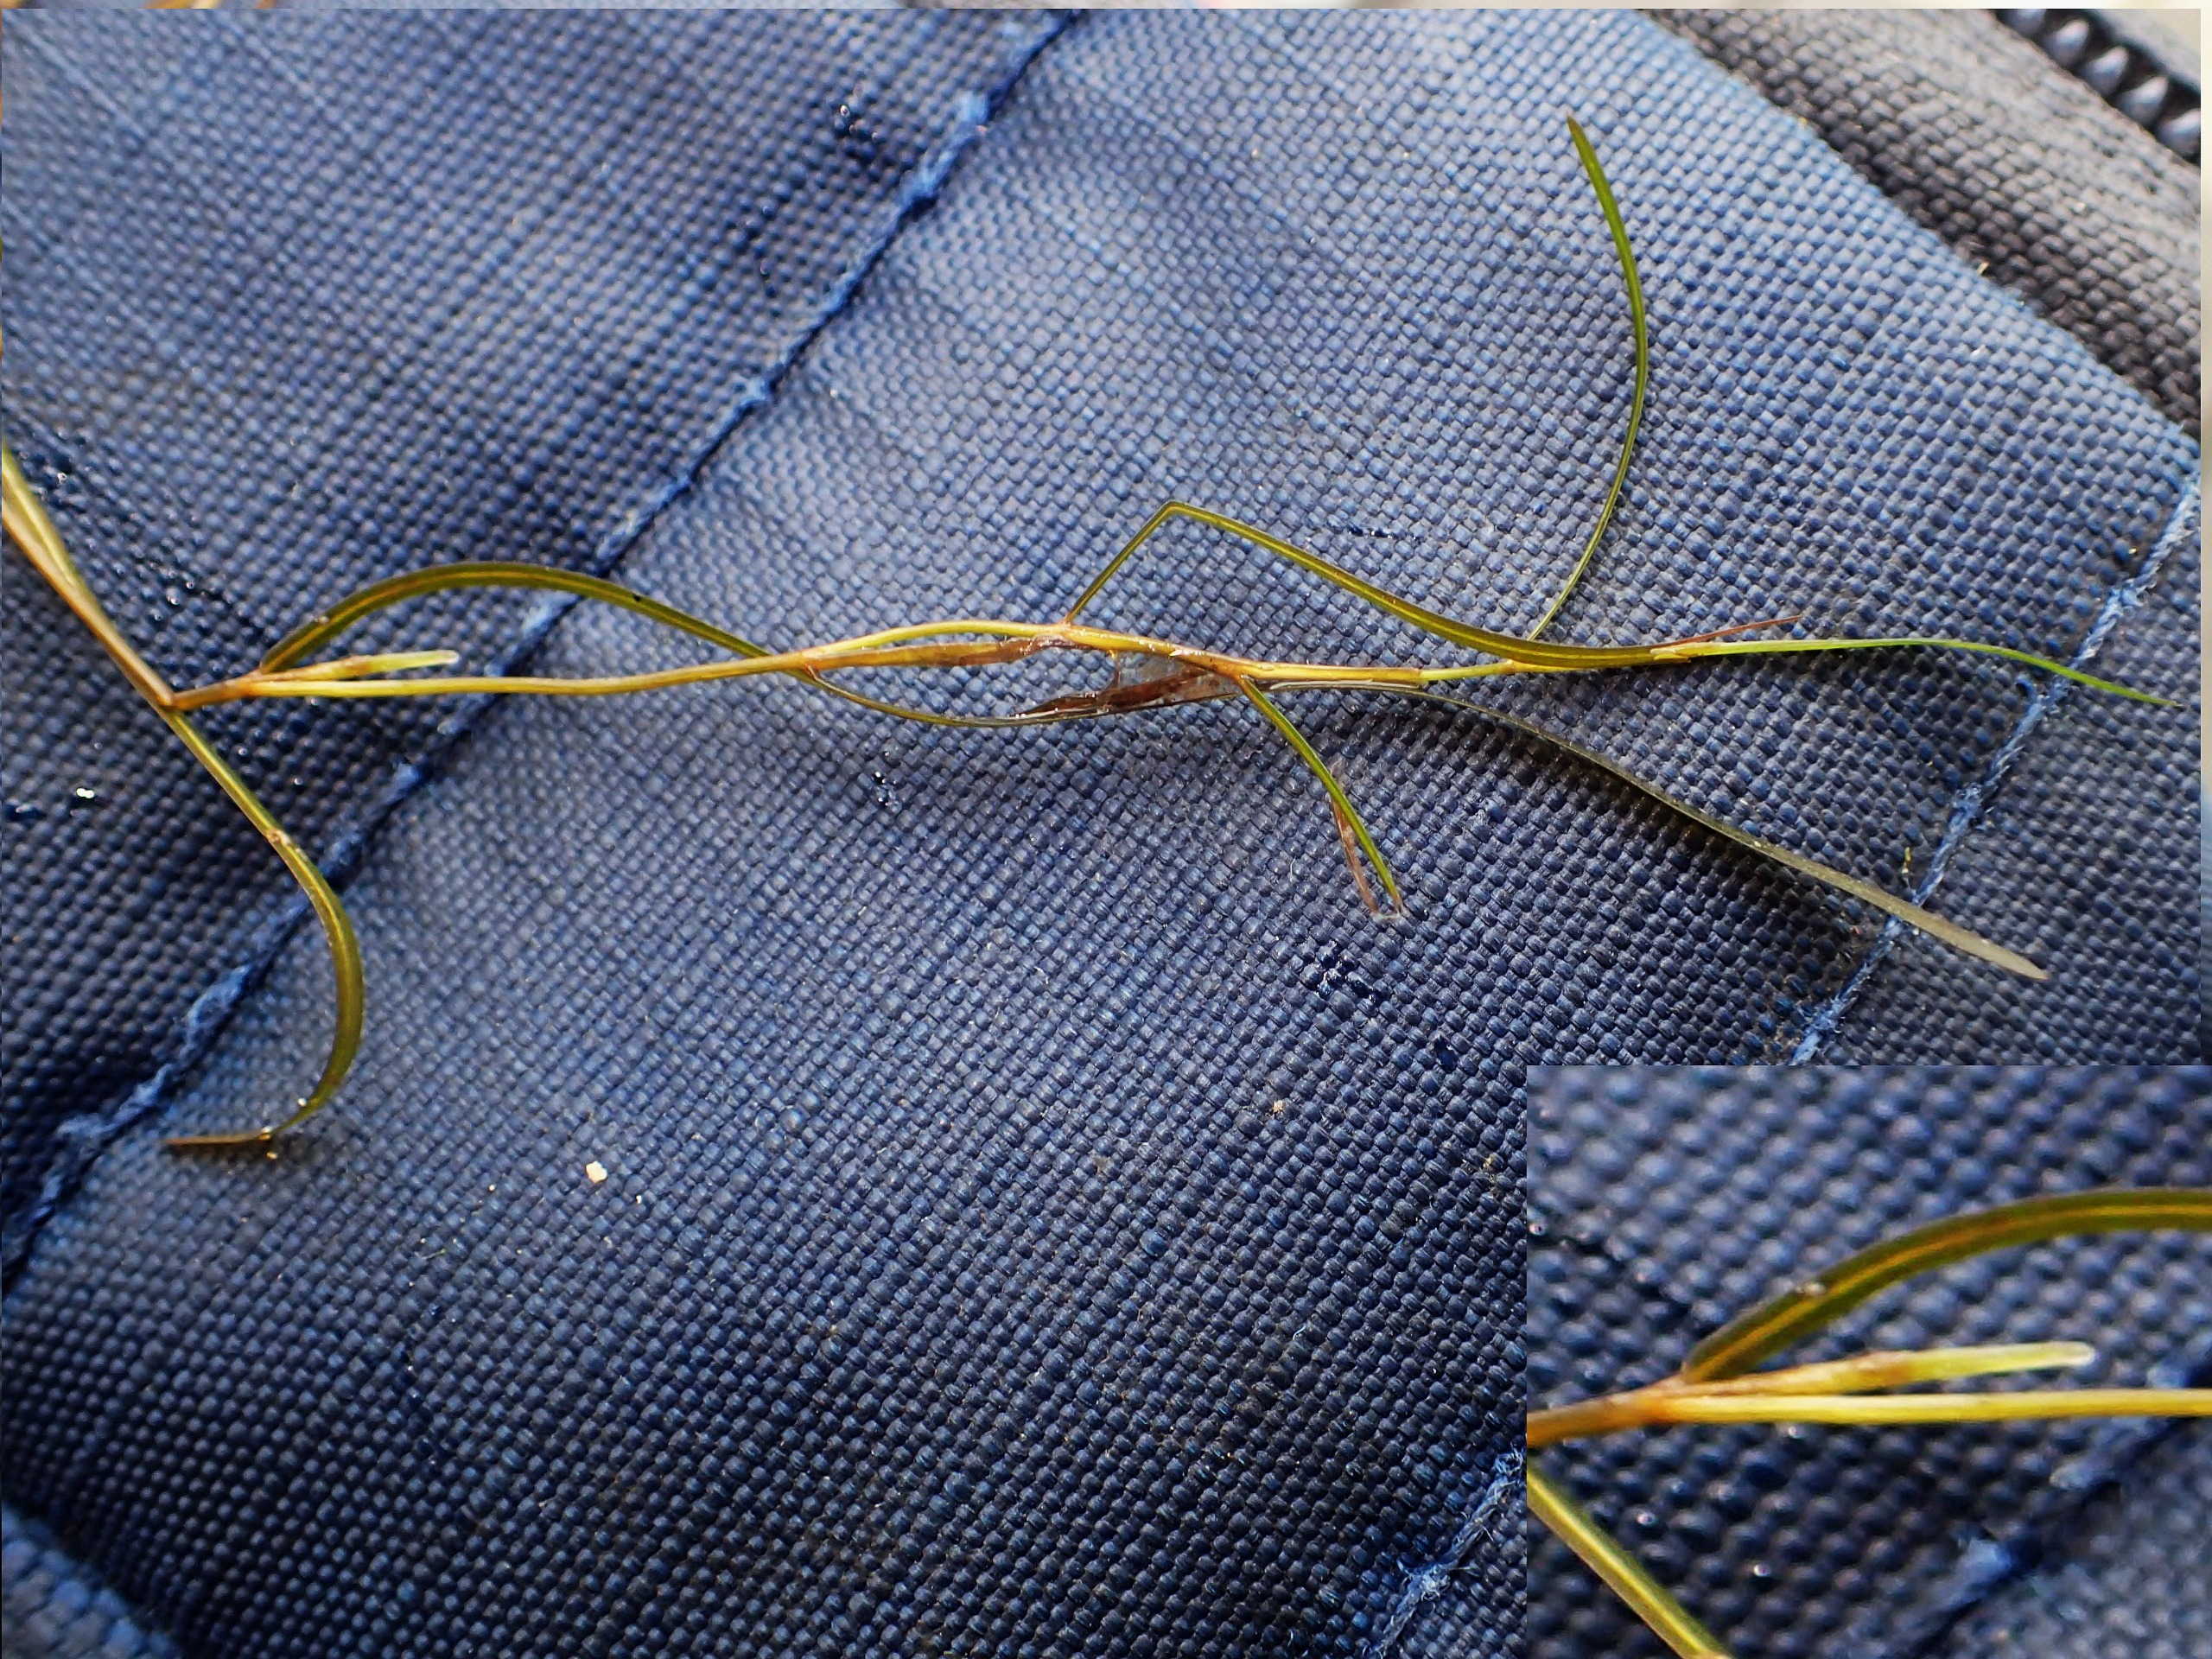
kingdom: Plantae
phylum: Tracheophyta
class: Liliopsida
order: Alismatales
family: Potamogetonaceae
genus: Potamogeton
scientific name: Potamogeton pusillus
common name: Spinkel vandaks
